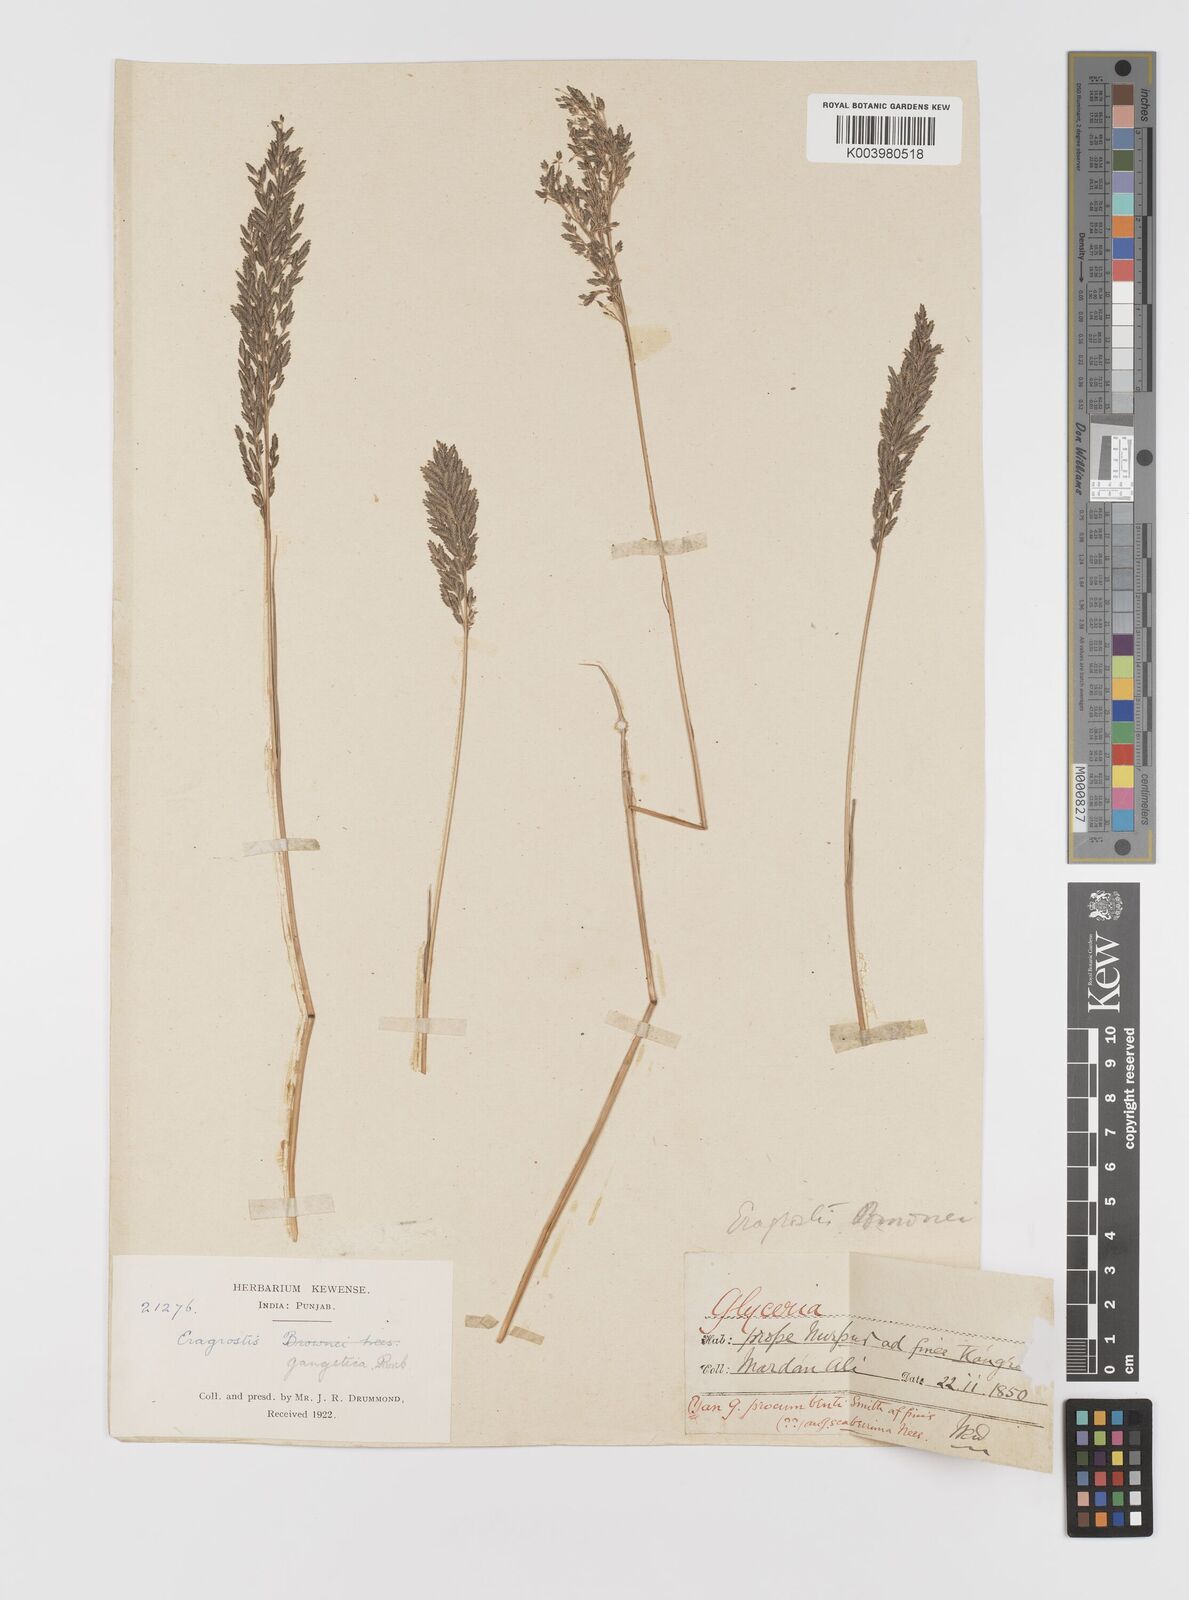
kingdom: Plantae
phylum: Tracheophyta
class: Liliopsida
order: Poales
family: Poaceae
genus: Eragrostis
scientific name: Eragrostis atrovirens
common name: Thalia lovegrass
